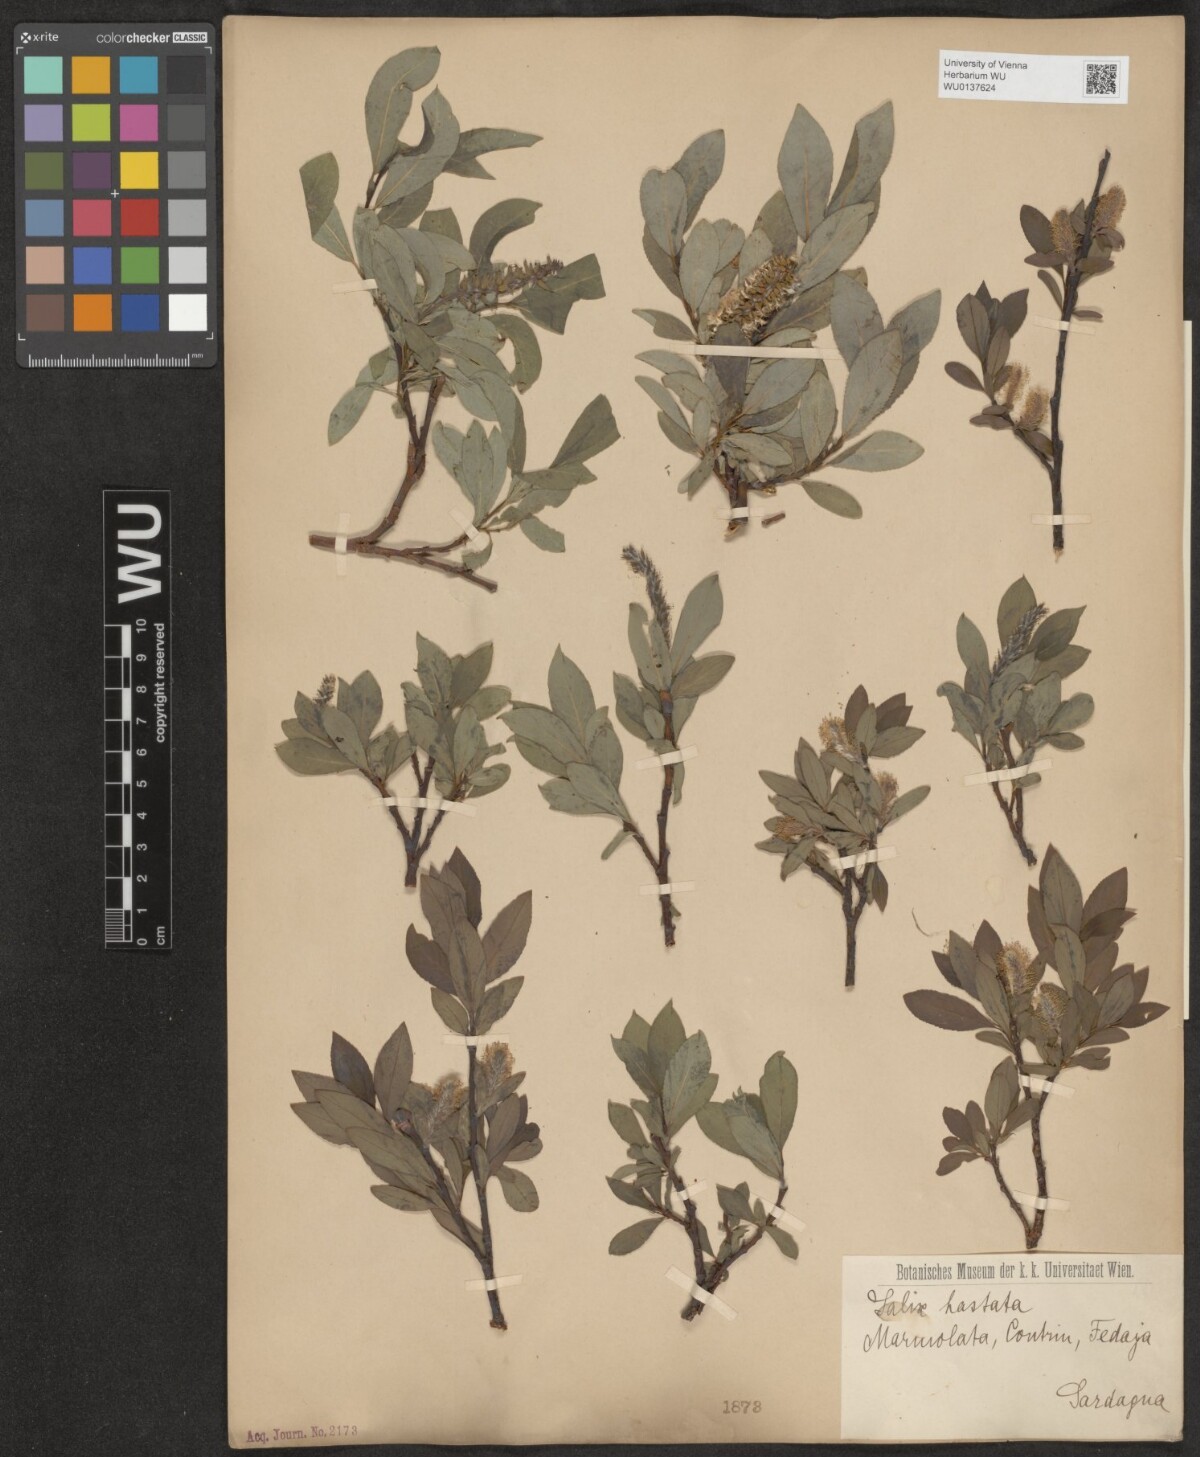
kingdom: Plantae
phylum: Tracheophyta
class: Magnoliopsida
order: Malpighiales
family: Salicaceae
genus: Salix
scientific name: Salix hastata
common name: Halberd willow
